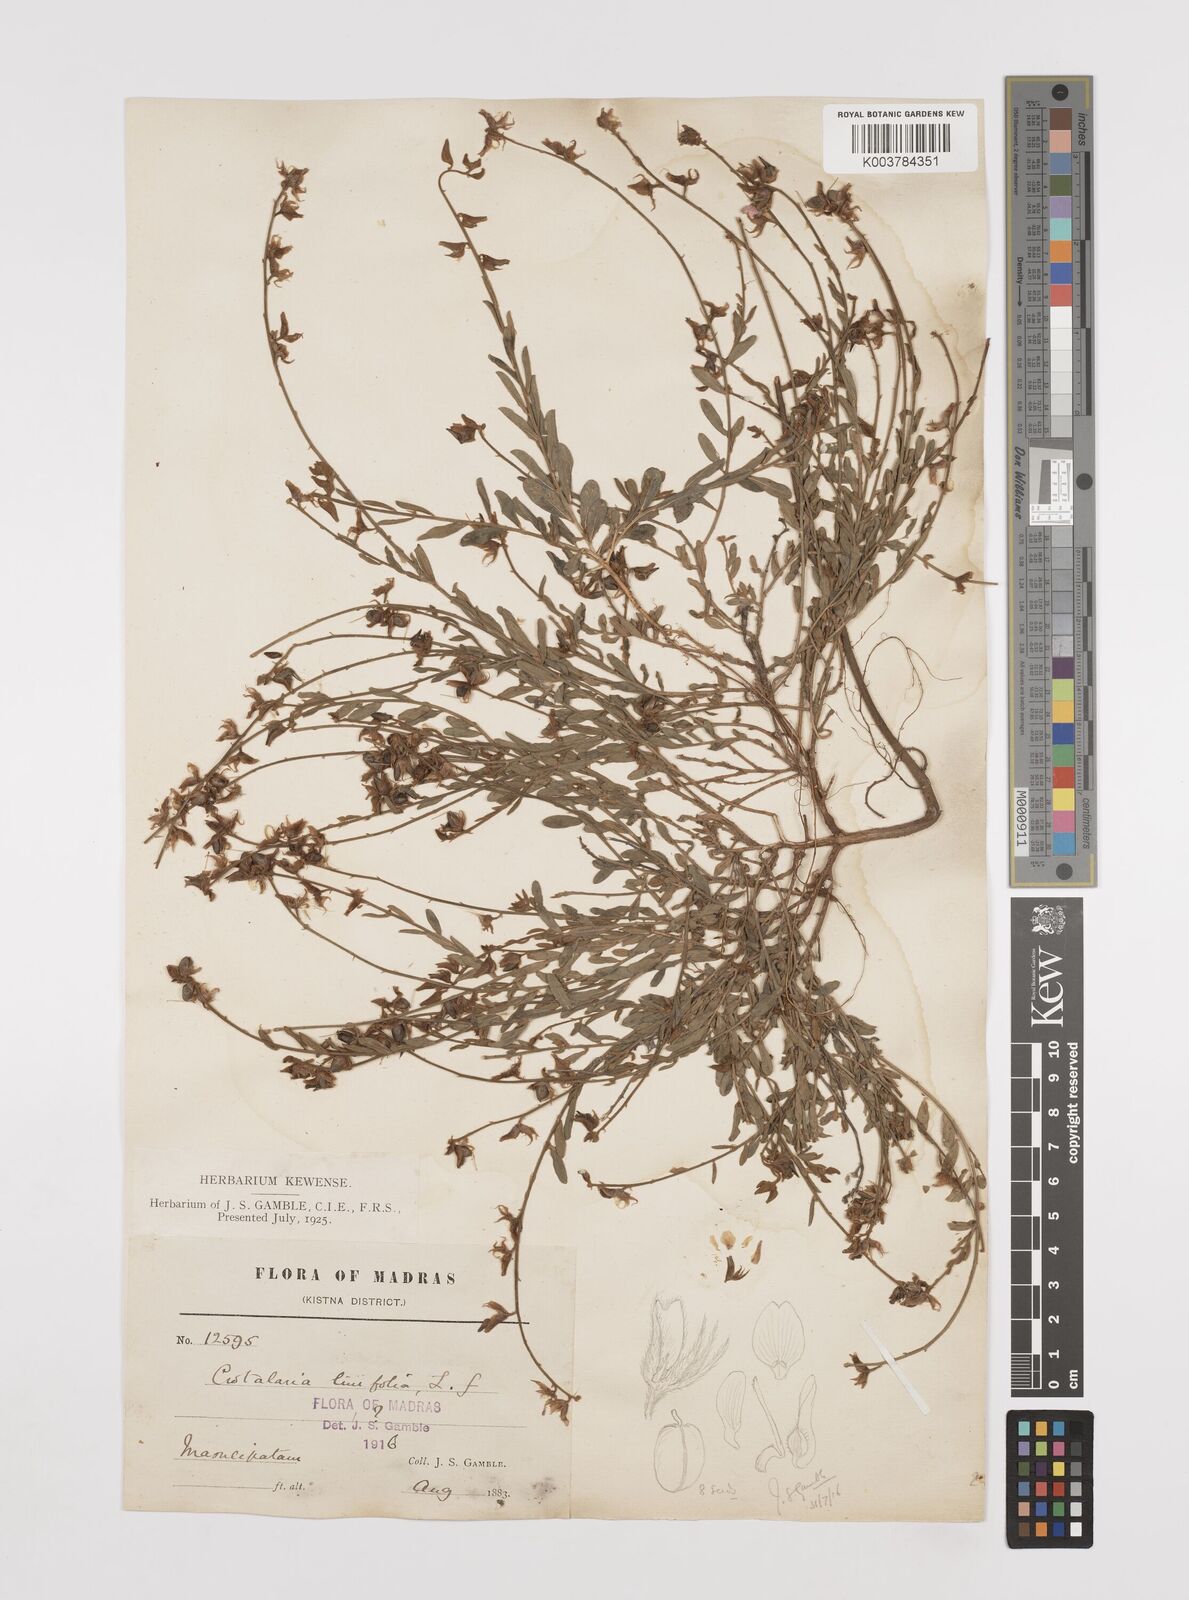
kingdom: Plantae
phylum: Tracheophyta
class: Magnoliopsida
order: Fabales
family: Fabaceae
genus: Crotalaria
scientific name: Crotalaria linifolia
